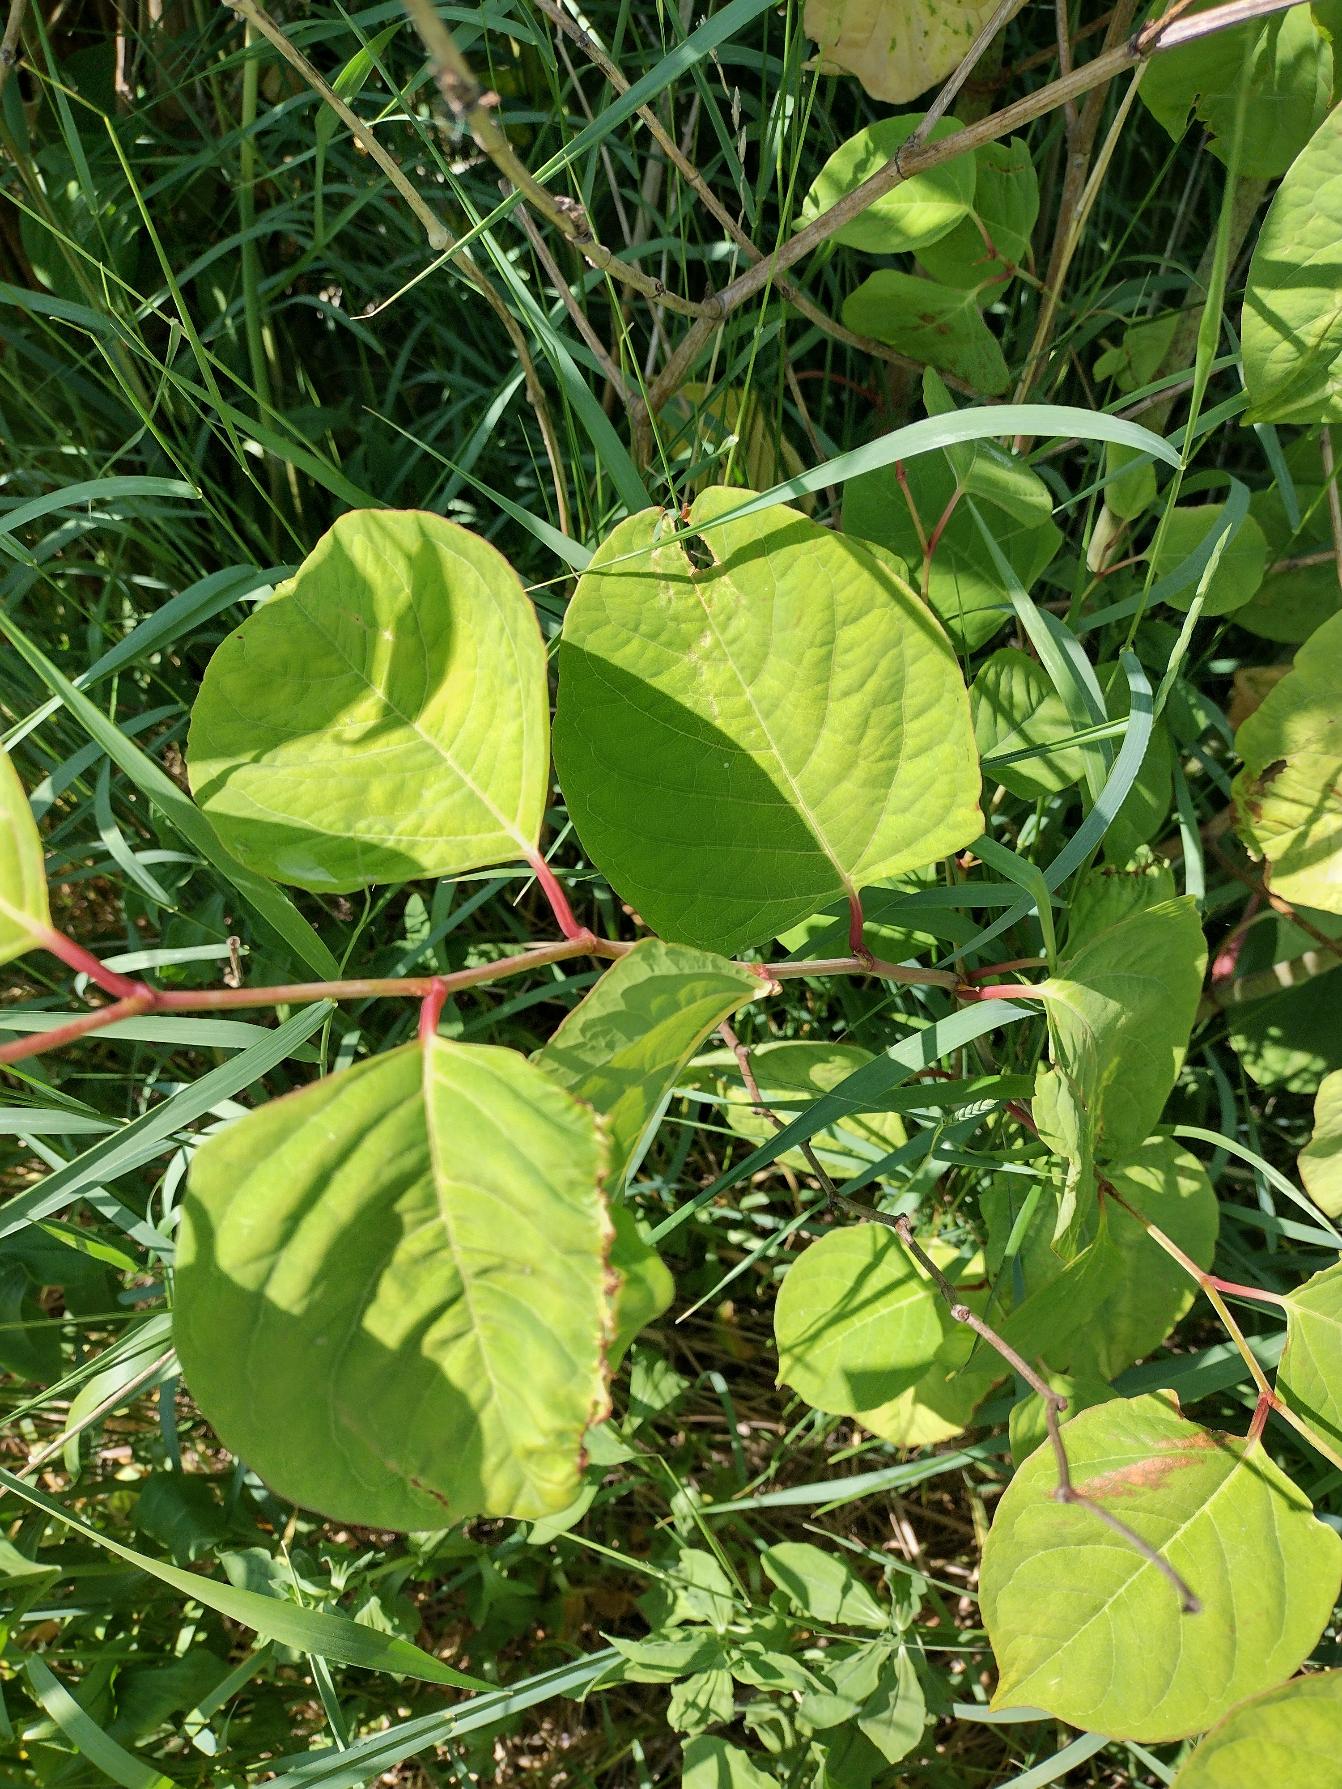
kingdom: Plantae
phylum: Tracheophyta
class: Magnoliopsida
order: Caryophyllales
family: Polygonaceae
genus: Reynoutria
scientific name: Reynoutria japonica
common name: Japan-pileurt
